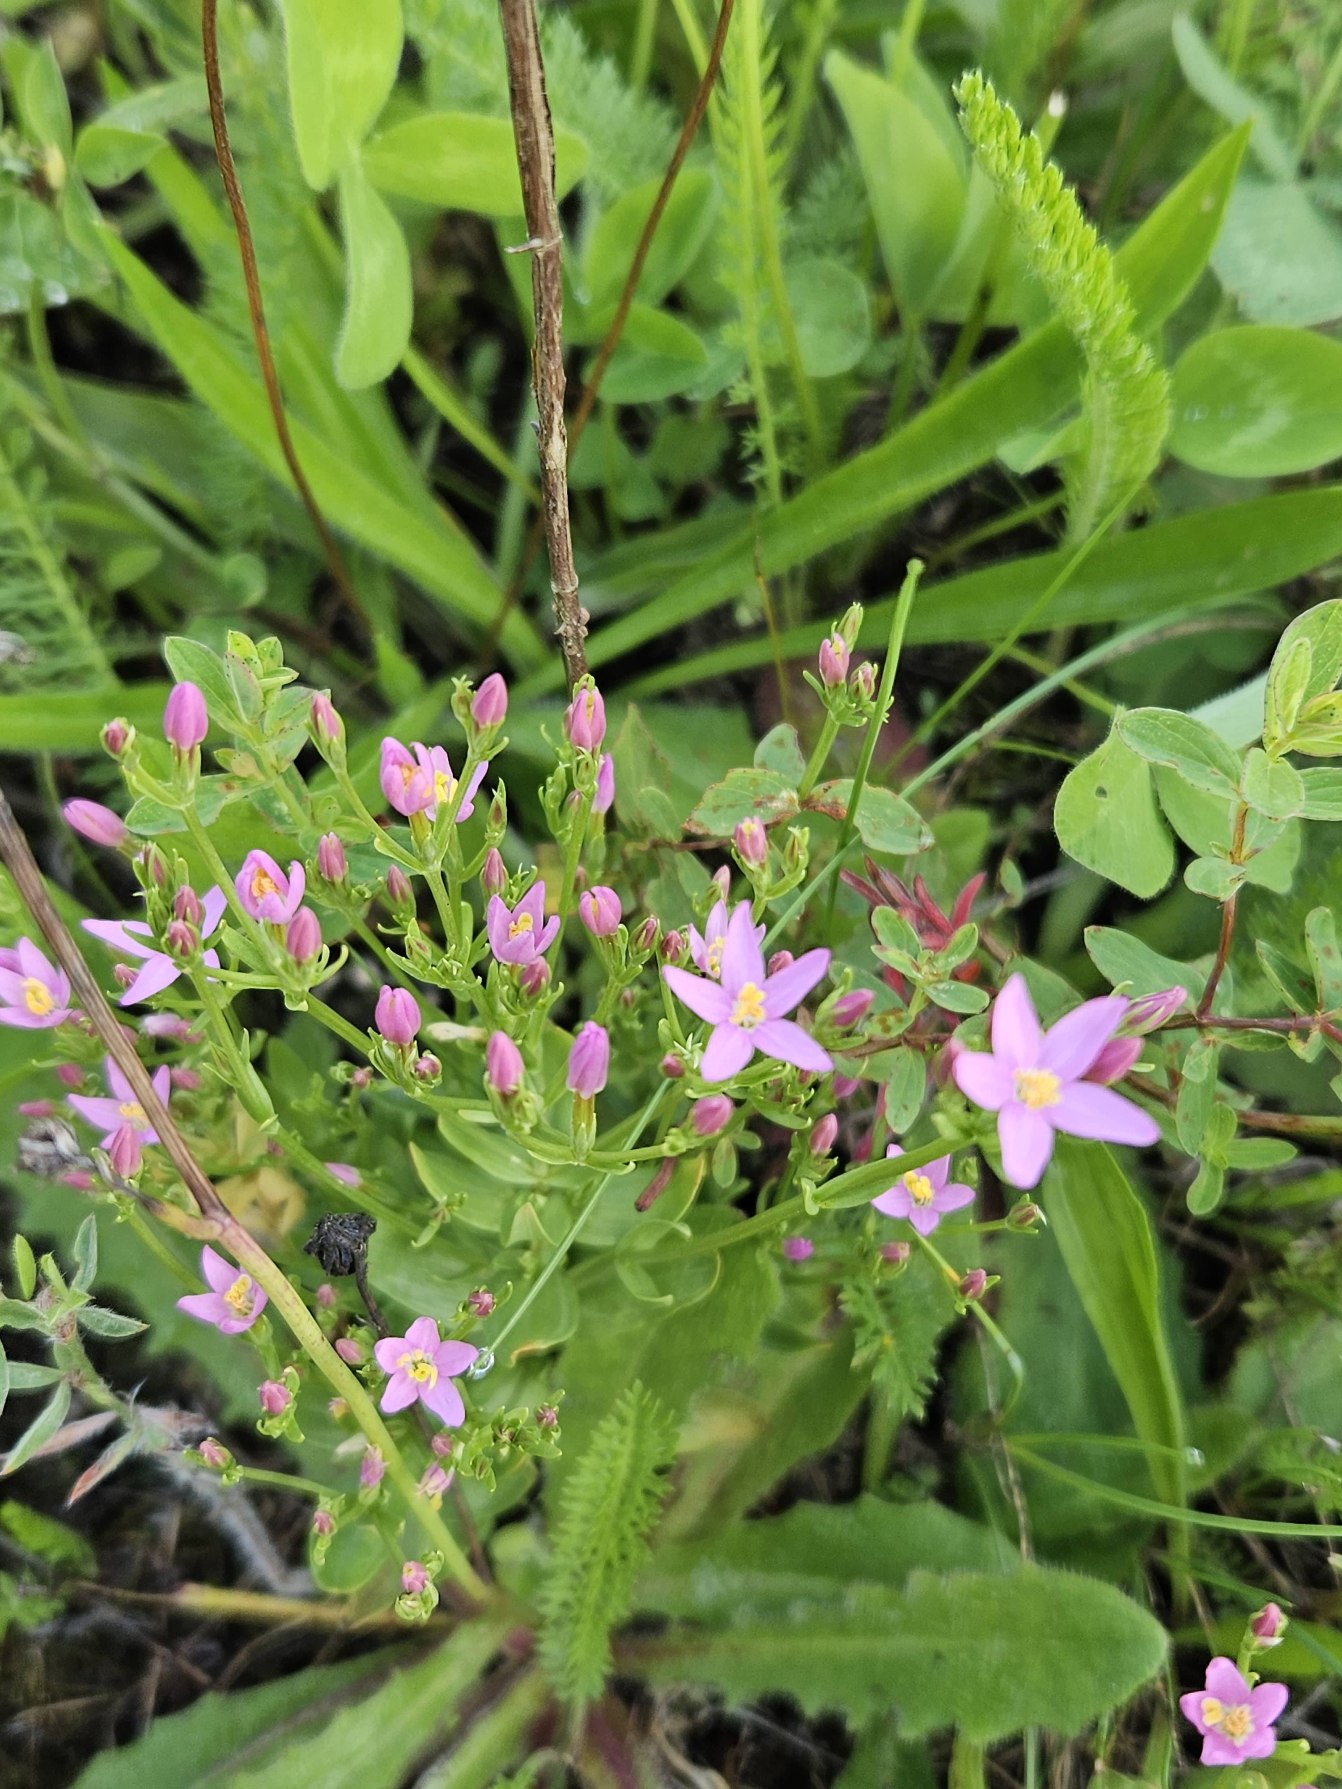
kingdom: Plantae
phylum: Tracheophyta
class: Magnoliopsida
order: Gentianales
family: Gentianaceae
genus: Centaurium
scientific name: Centaurium erythraea
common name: Mark-tusindgylden
